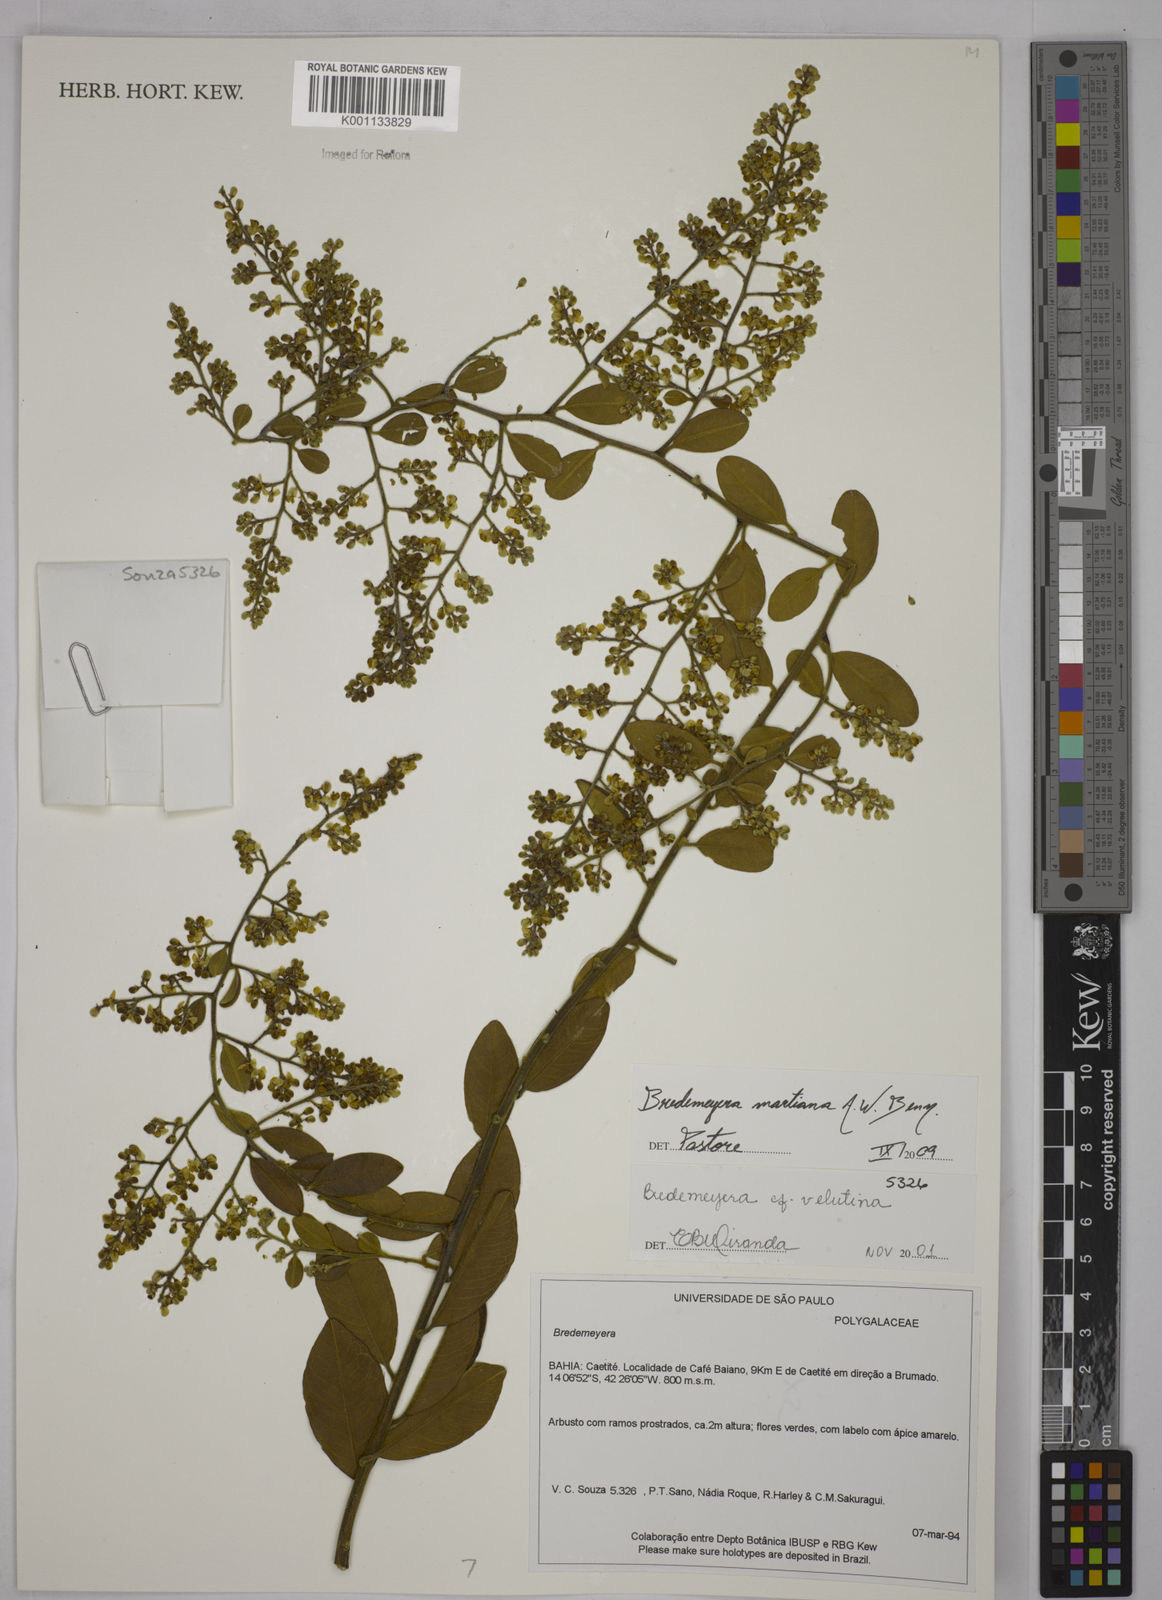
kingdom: Plantae
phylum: Tracheophyta
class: Magnoliopsida
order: Fabales
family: Polygalaceae
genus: Bredemeyera
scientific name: Bredemeyera martiana
